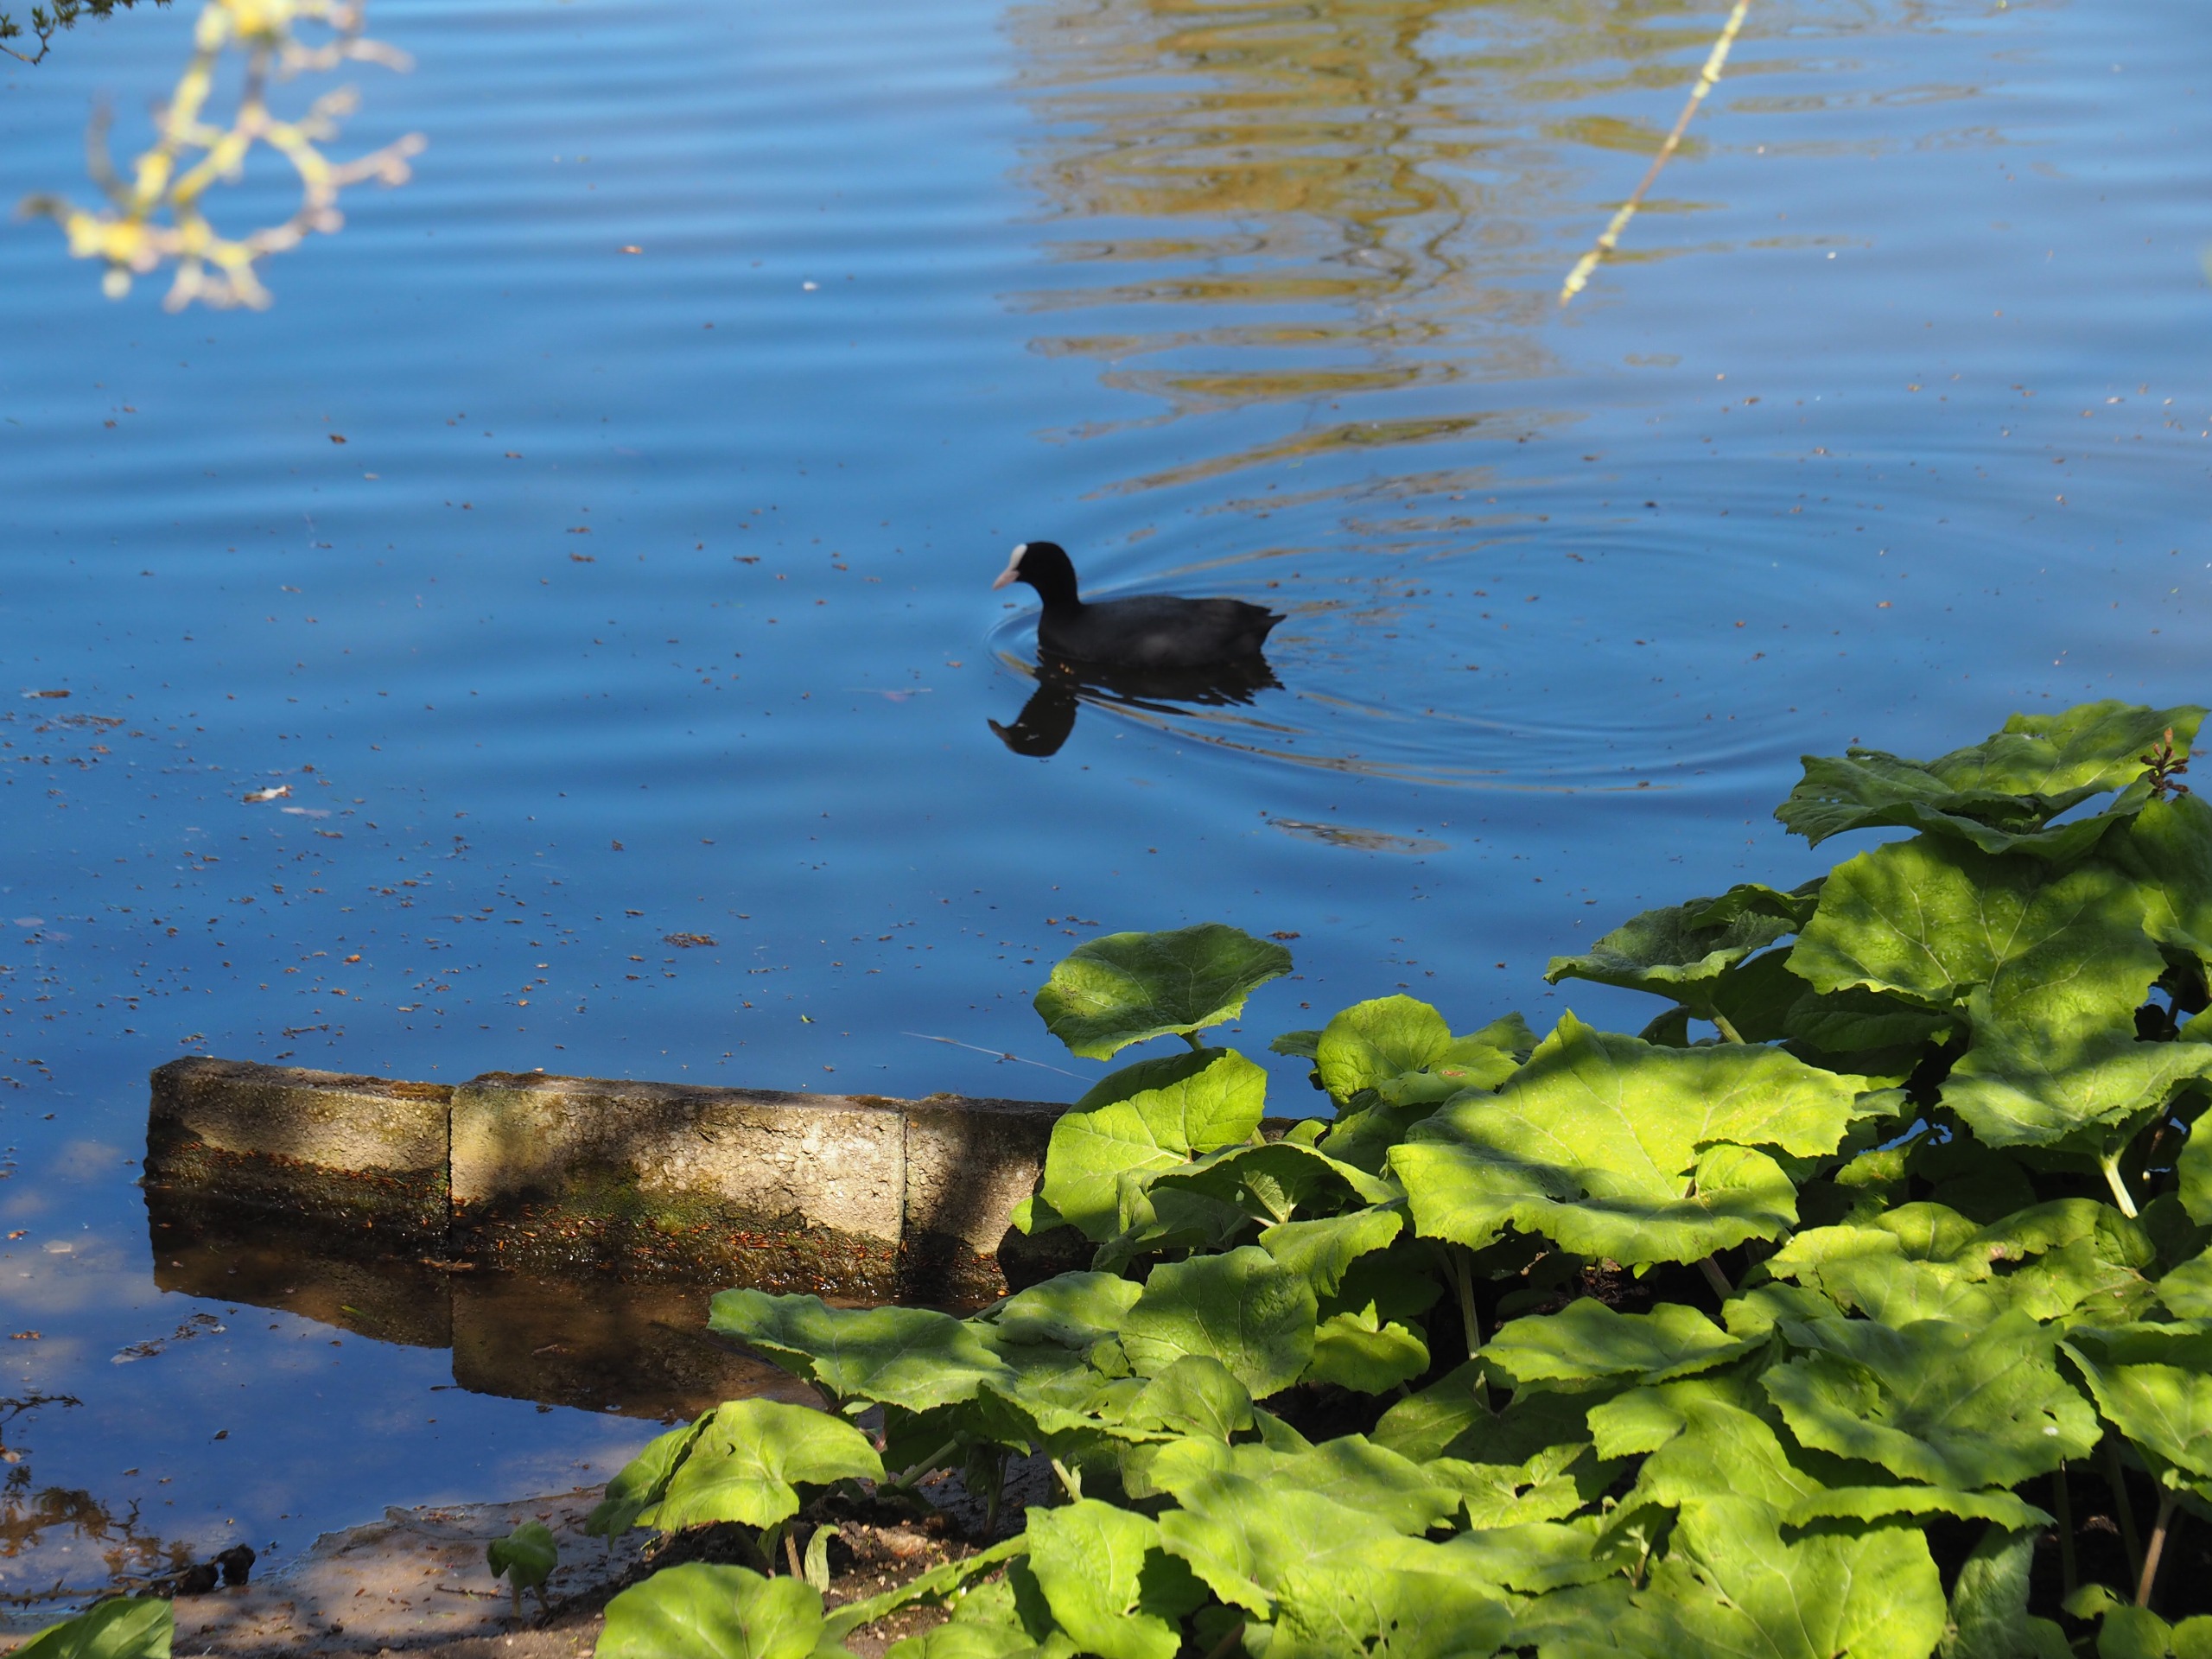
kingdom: Animalia
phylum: Chordata
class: Aves
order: Gruiformes
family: Rallidae
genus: Fulica
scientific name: Fulica atra
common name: Blishøne
